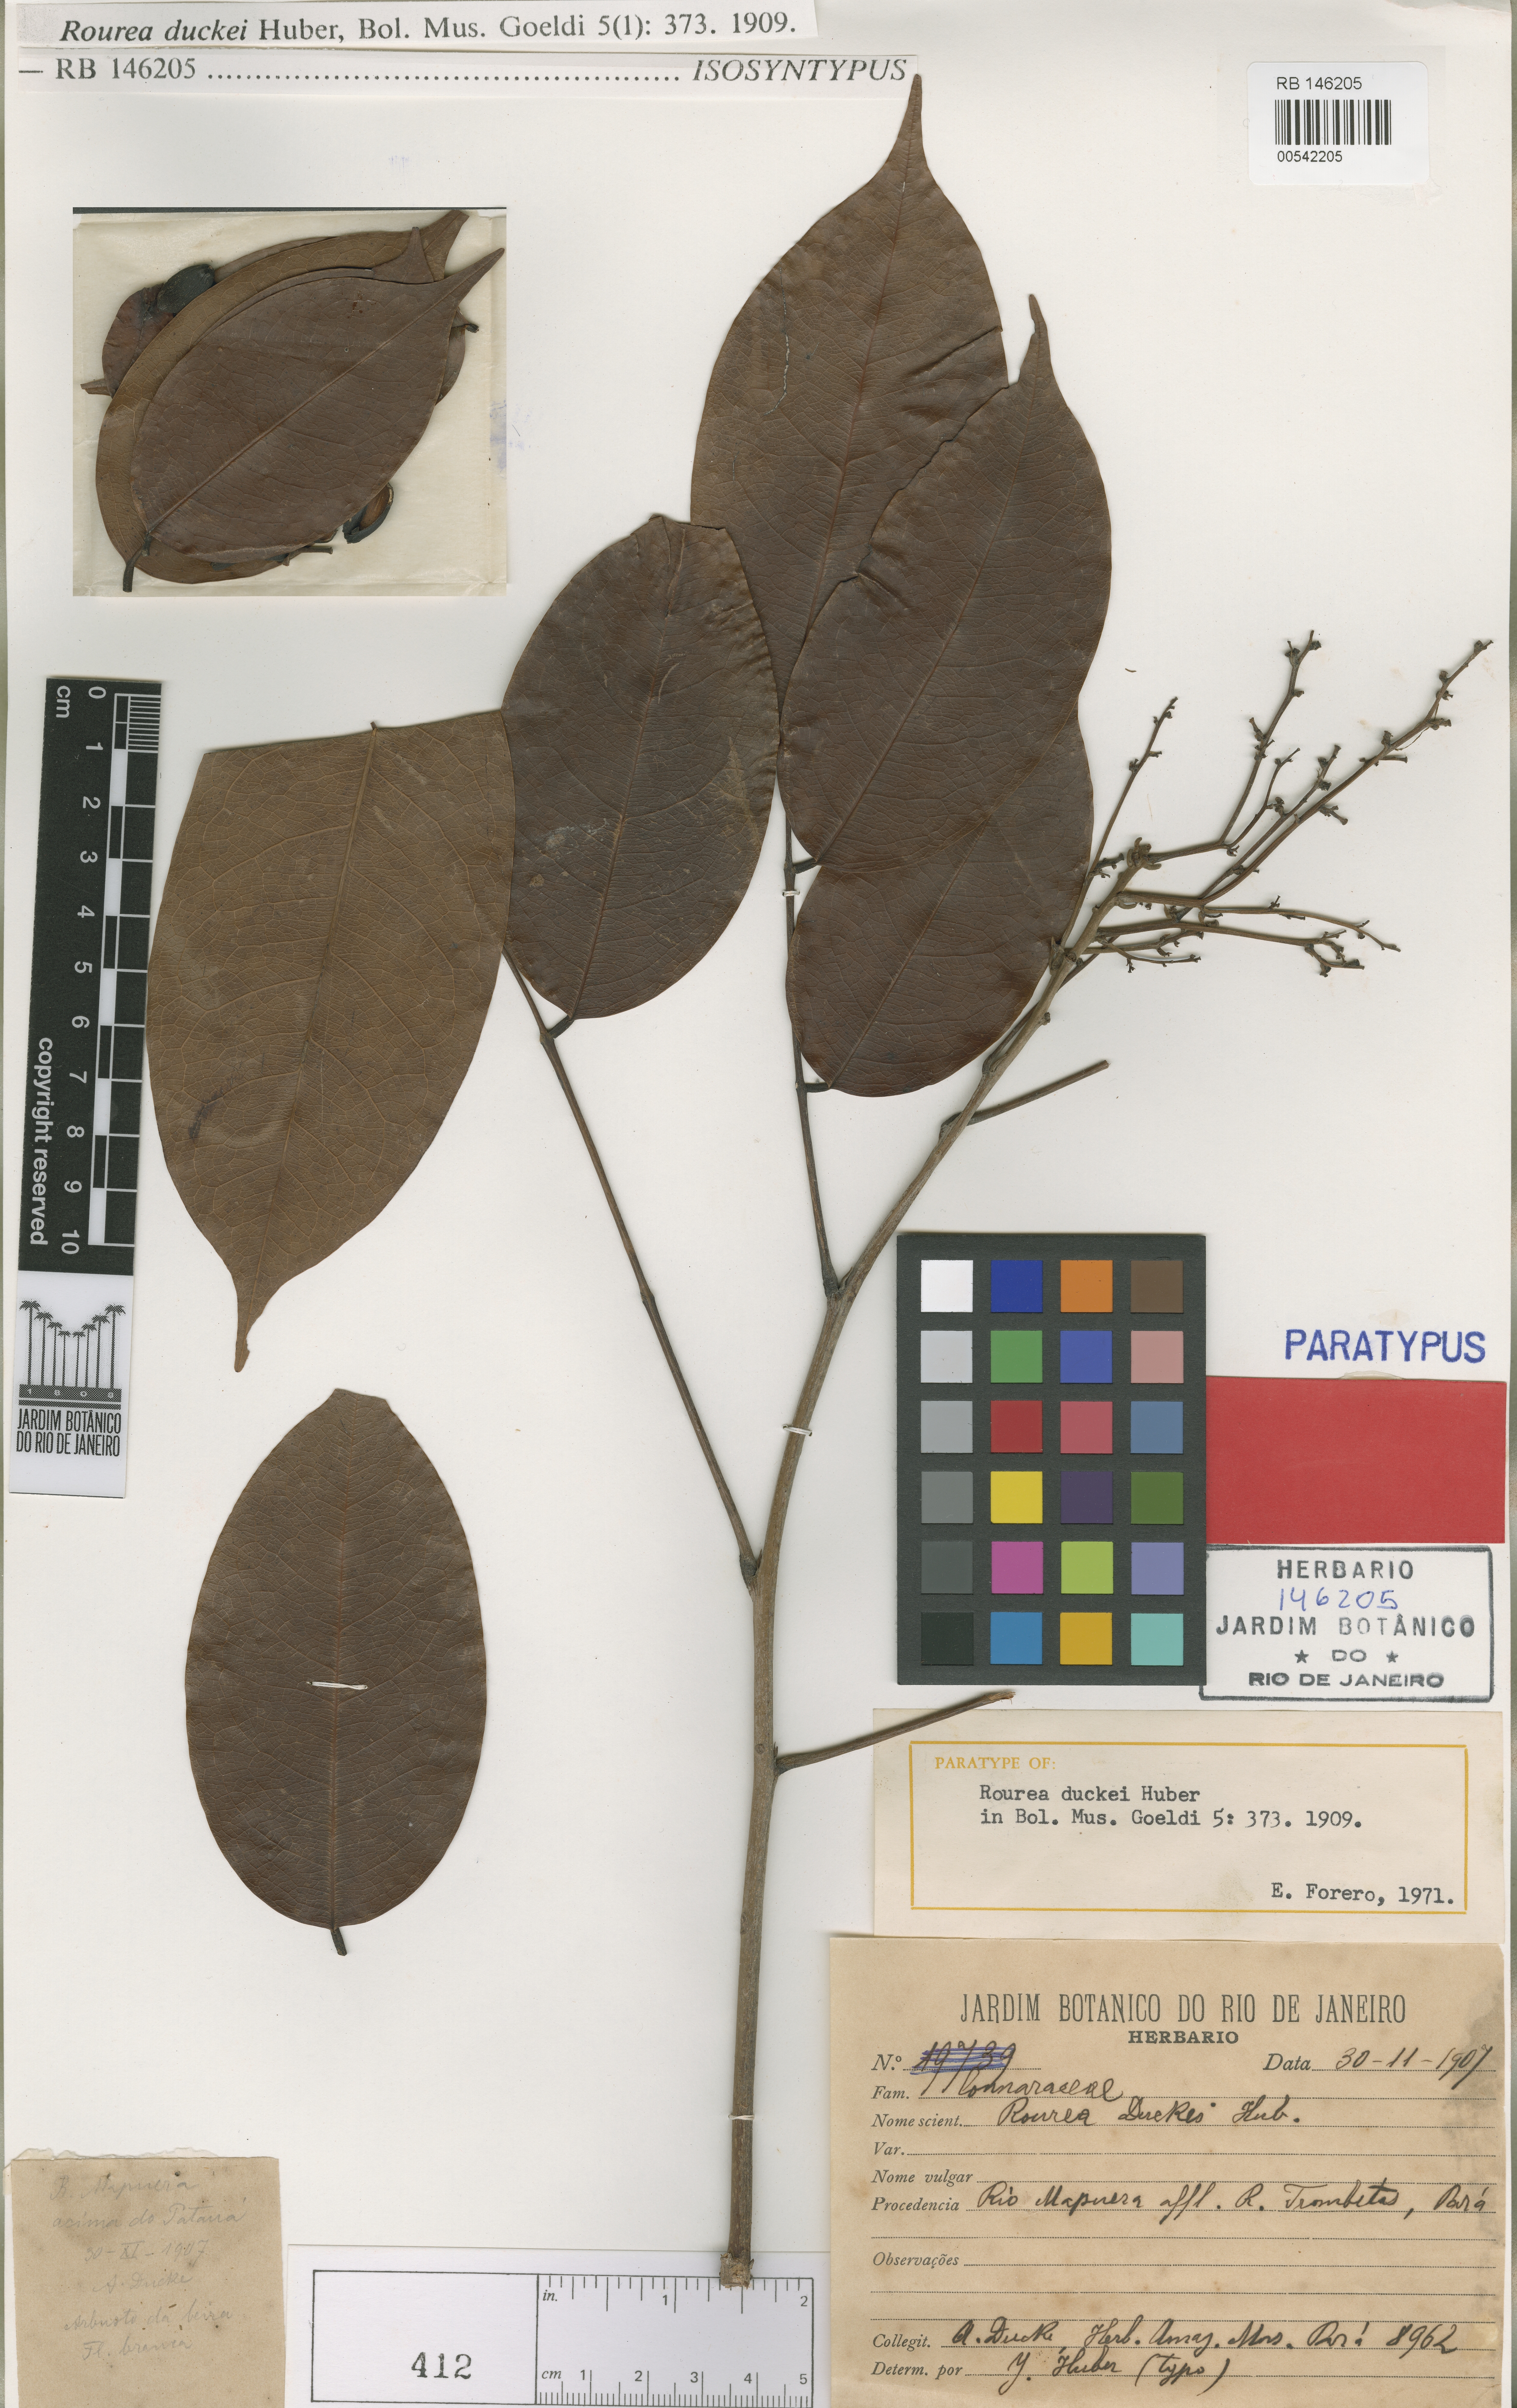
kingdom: Plantae
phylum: Tracheophyta
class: Magnoliopsida
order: Oxalidales
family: Connaraceae
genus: Rourea
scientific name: Rourea duckei
